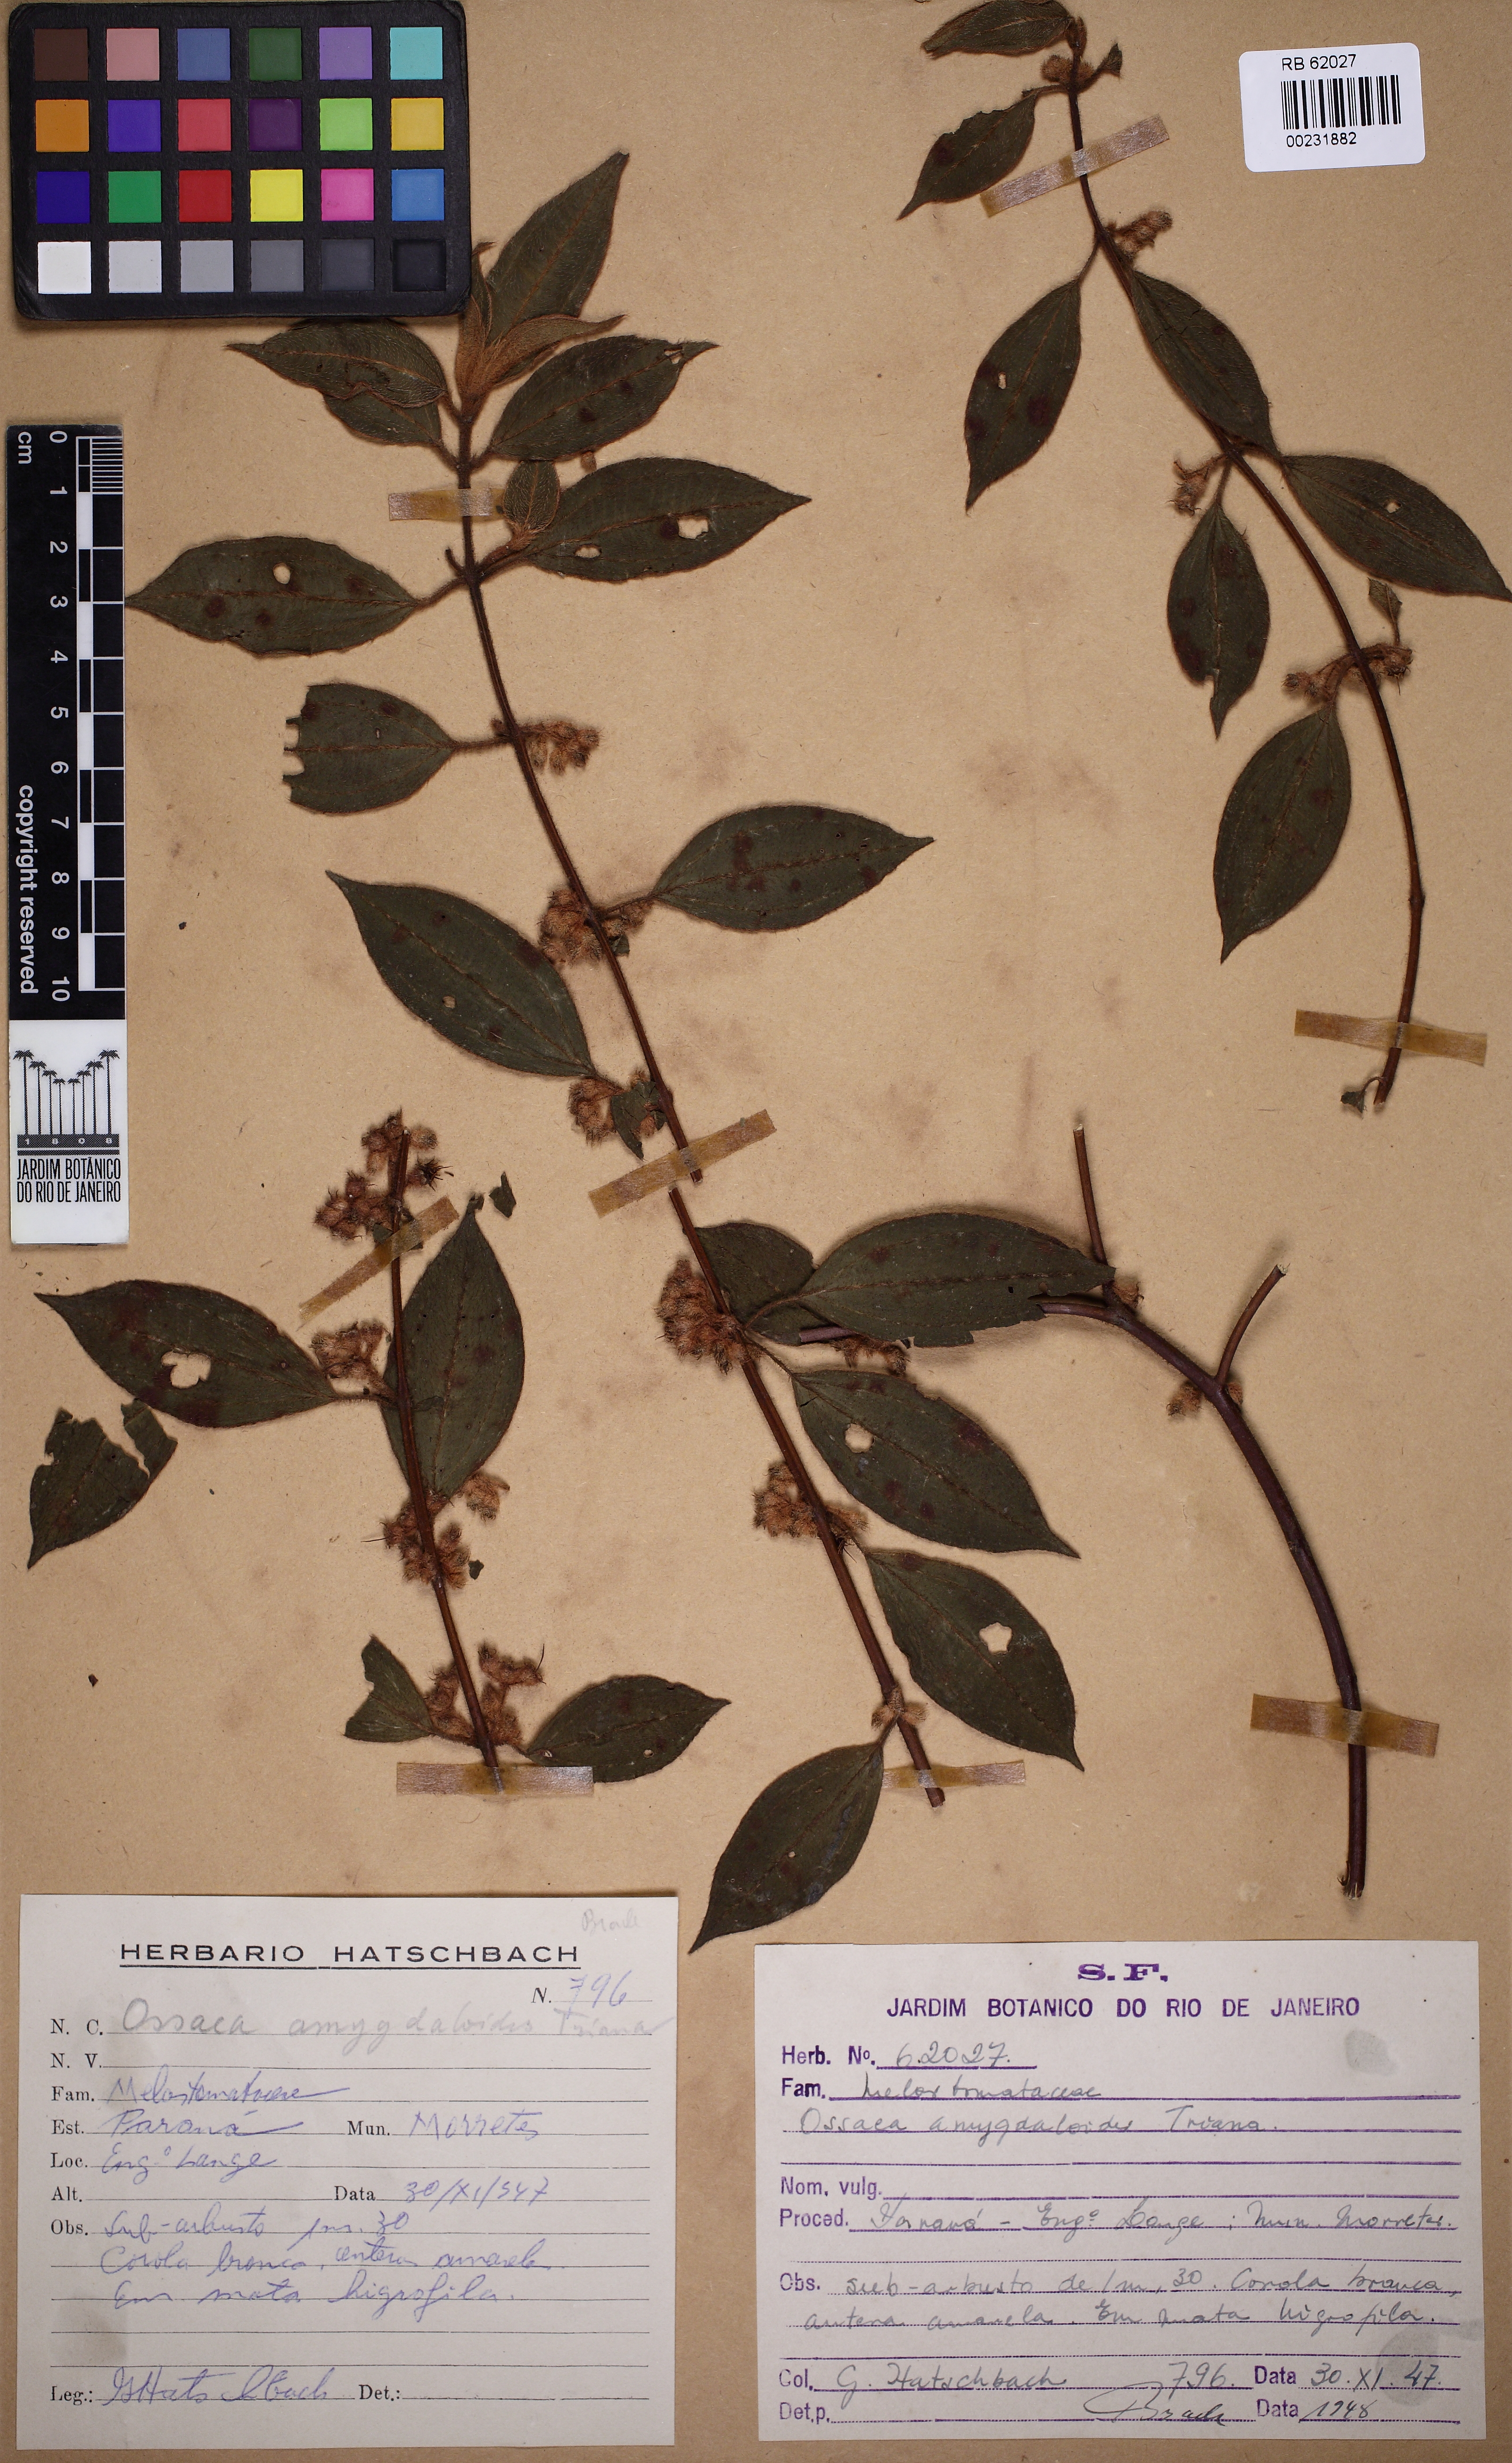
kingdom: Plantae
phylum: Tracheophyta
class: Magnoliopsida
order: Myrtales
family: Melastomataceae
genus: Miconia
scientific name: Miconia meridionalis
